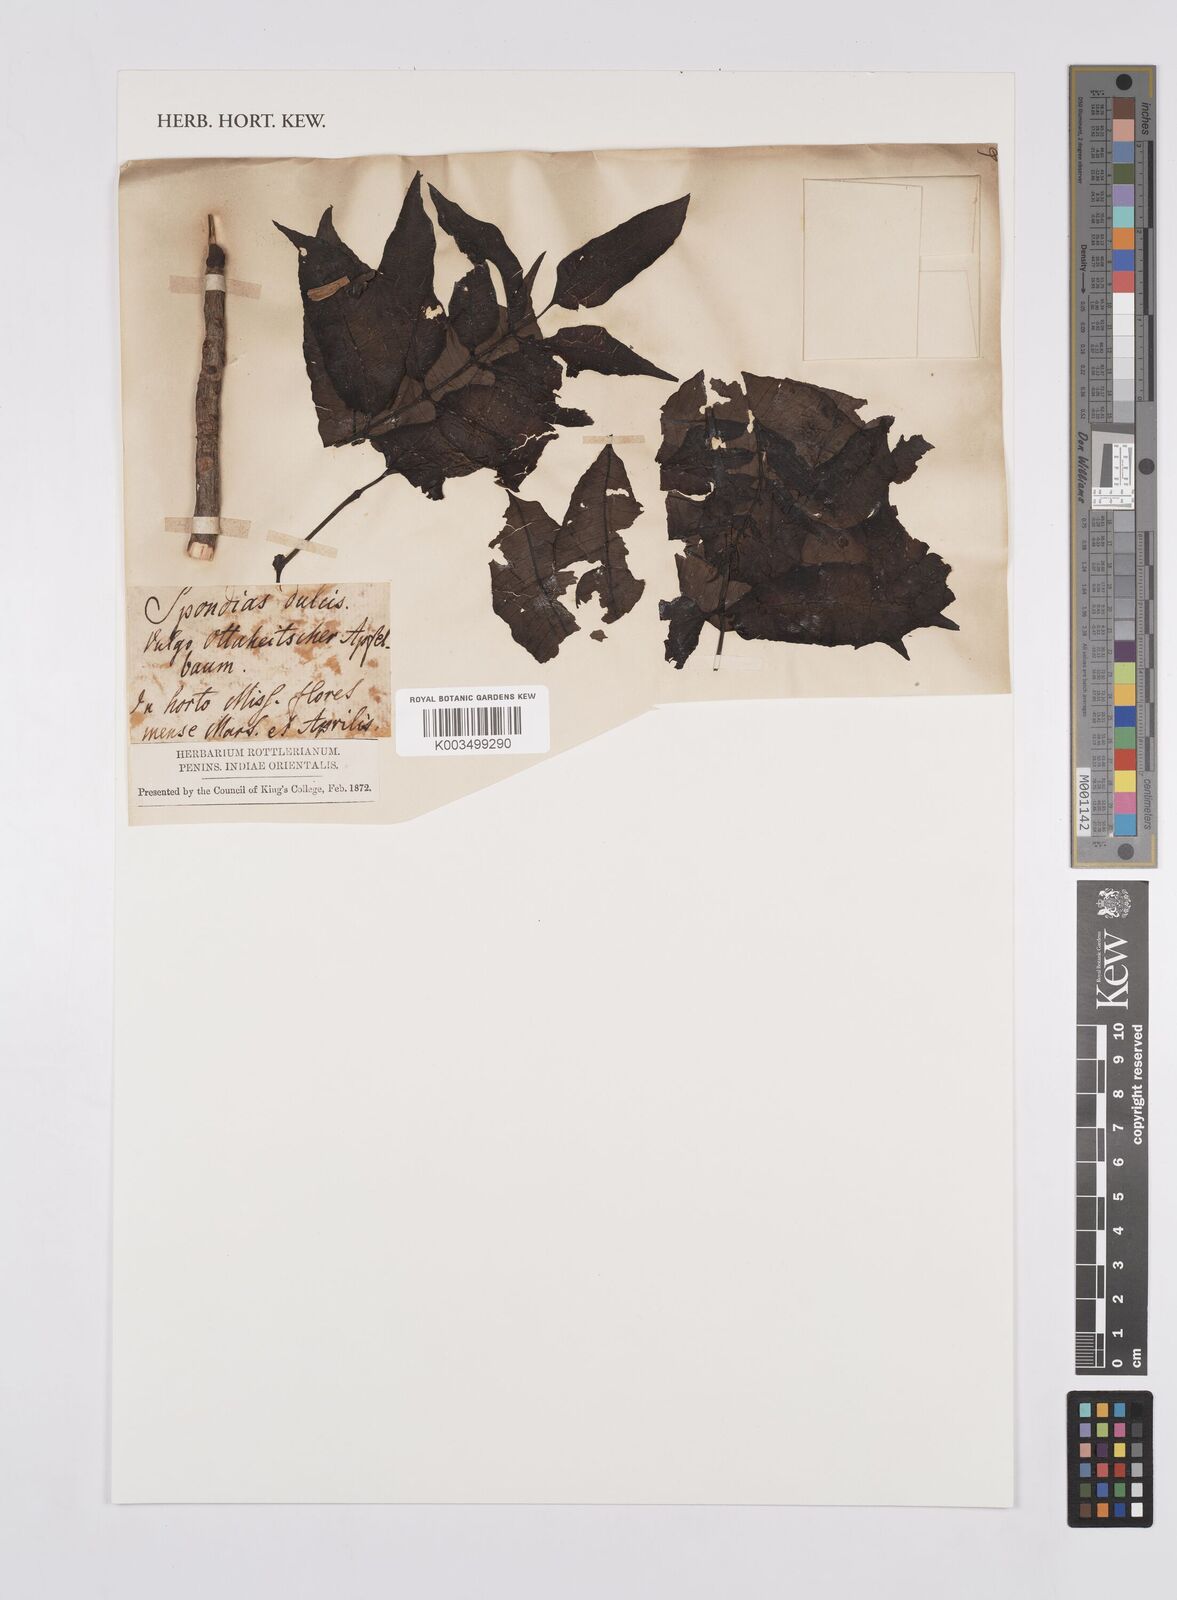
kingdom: Plantae
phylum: Tracheophyta
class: Magnoliopsida
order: Sapindales
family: Anacardiaceae
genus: Spondias
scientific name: Spondias dulcis
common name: Ambarella
